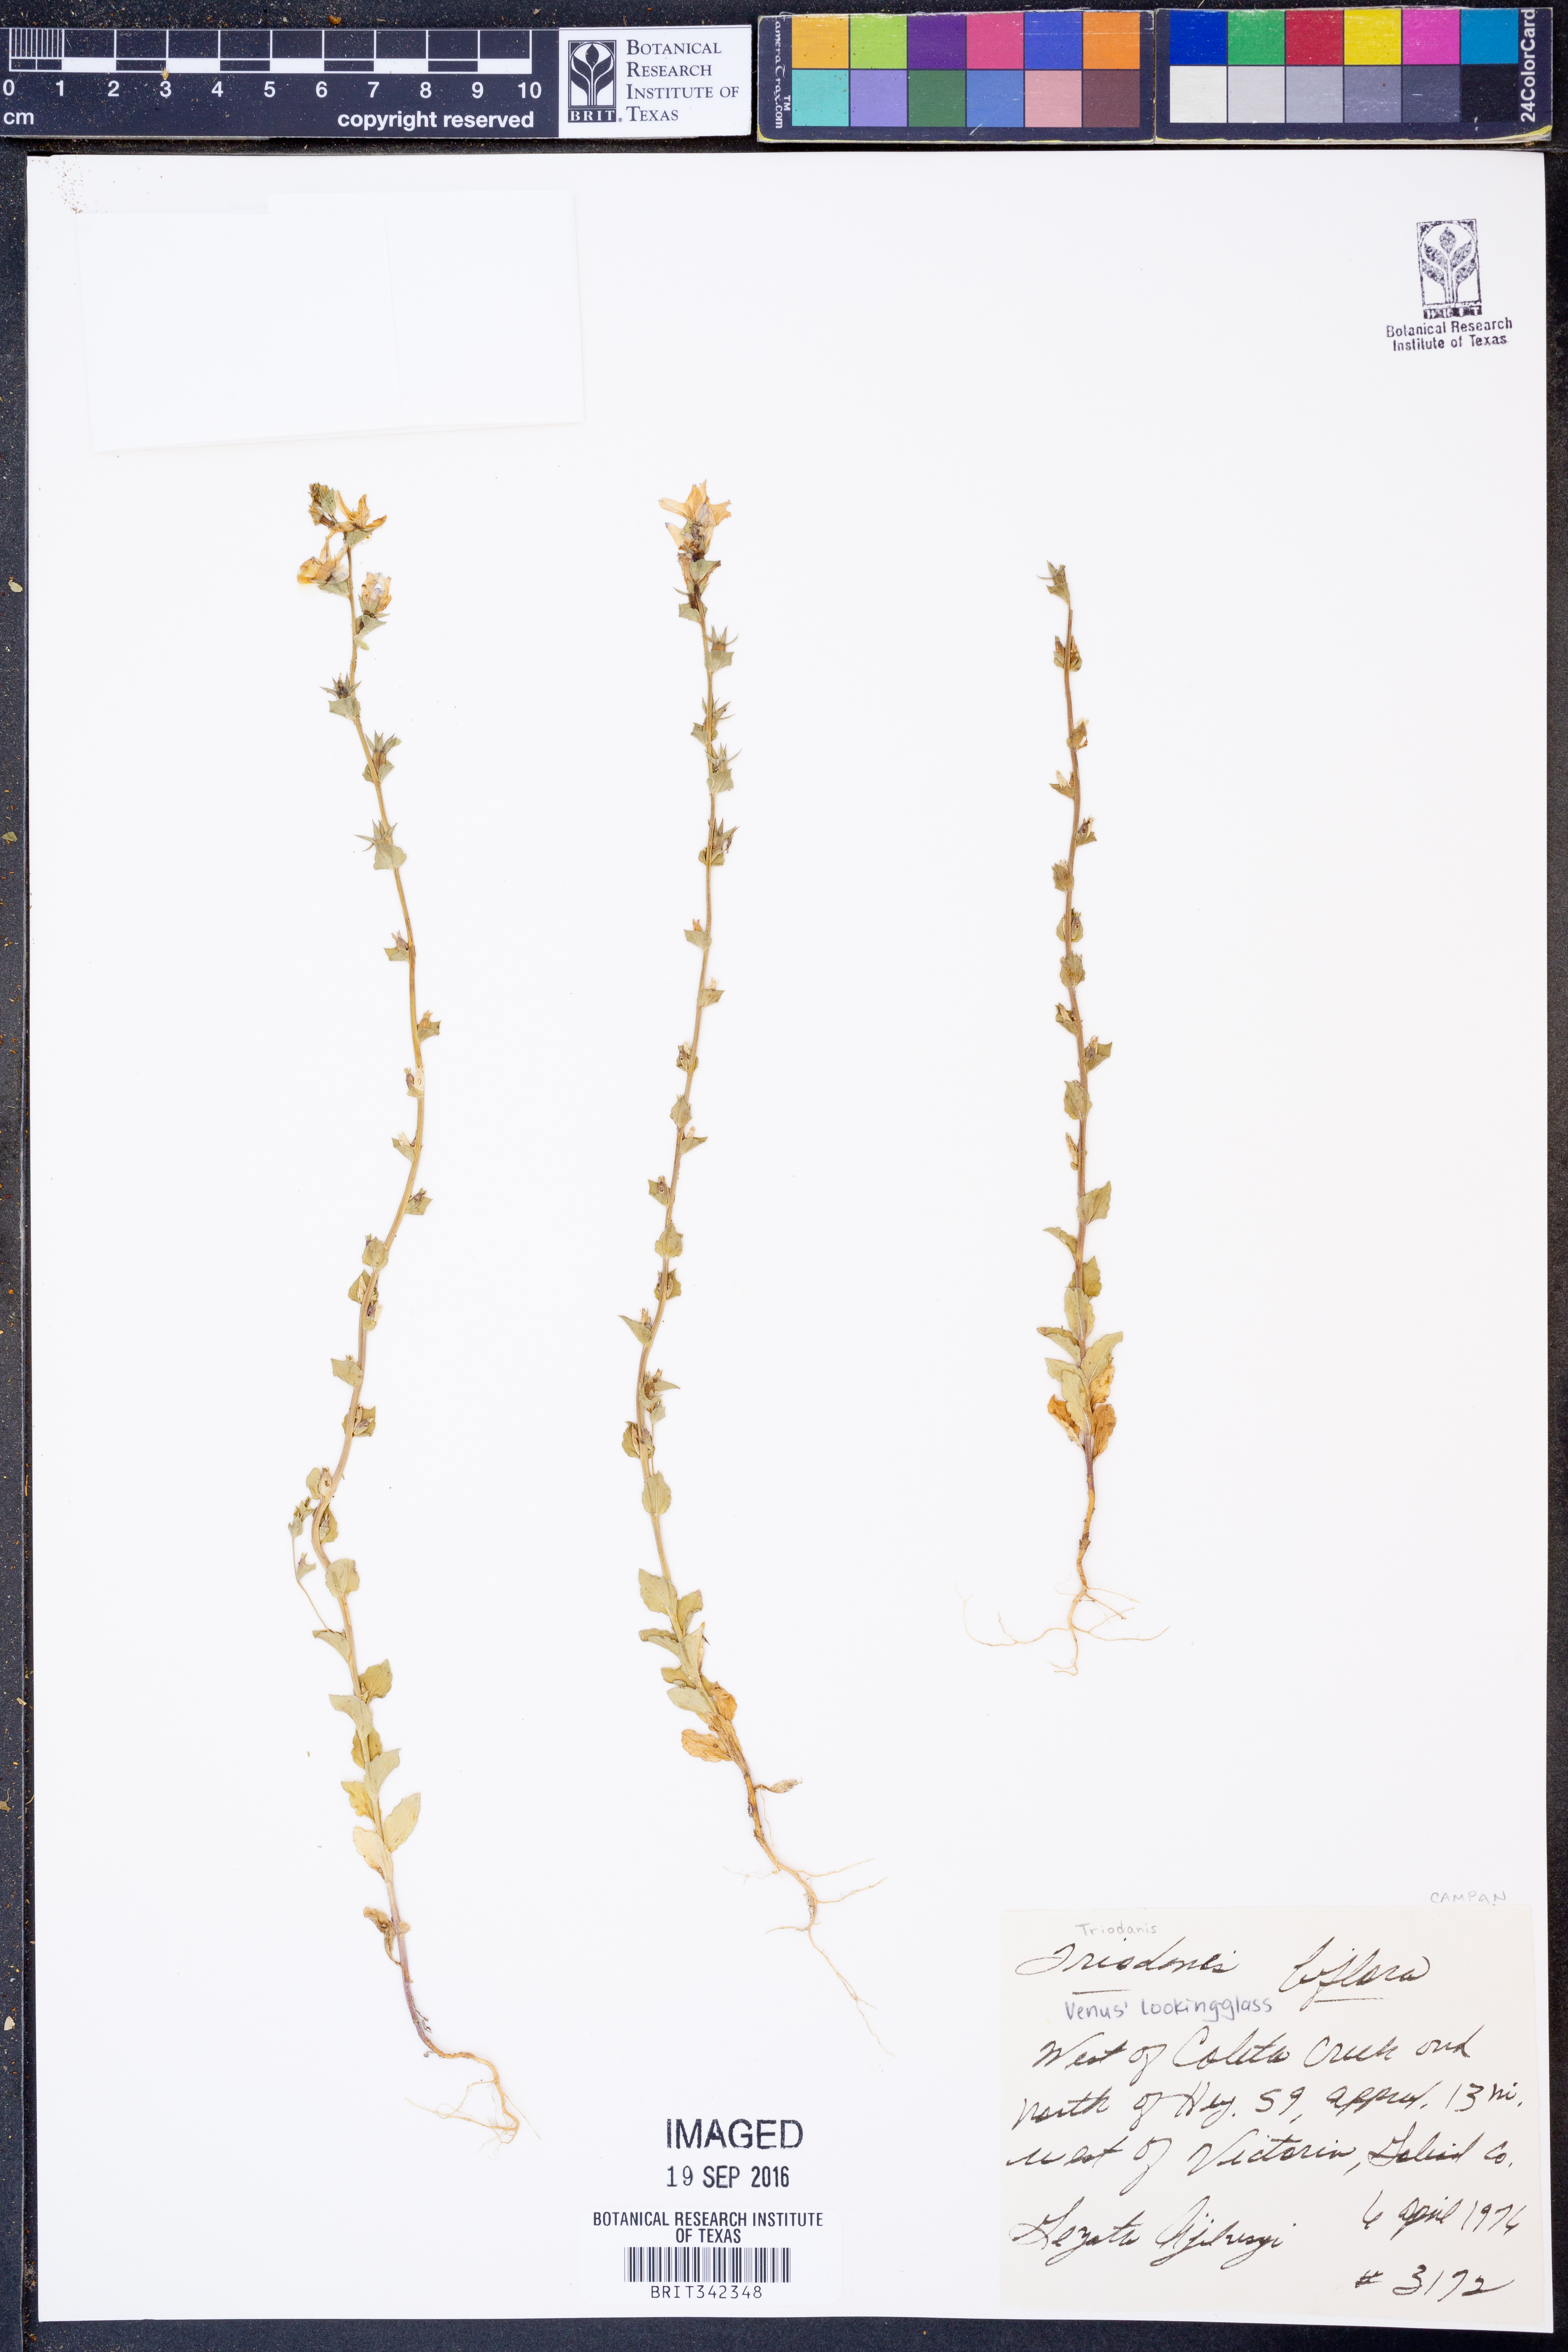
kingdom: Plantae
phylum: Tracheophyta
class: Magnoliopsida
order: Asterales
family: Campanulaceae
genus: Triodanis
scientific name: Triodanis perfoliata
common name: Clasping venus' looking-glass
